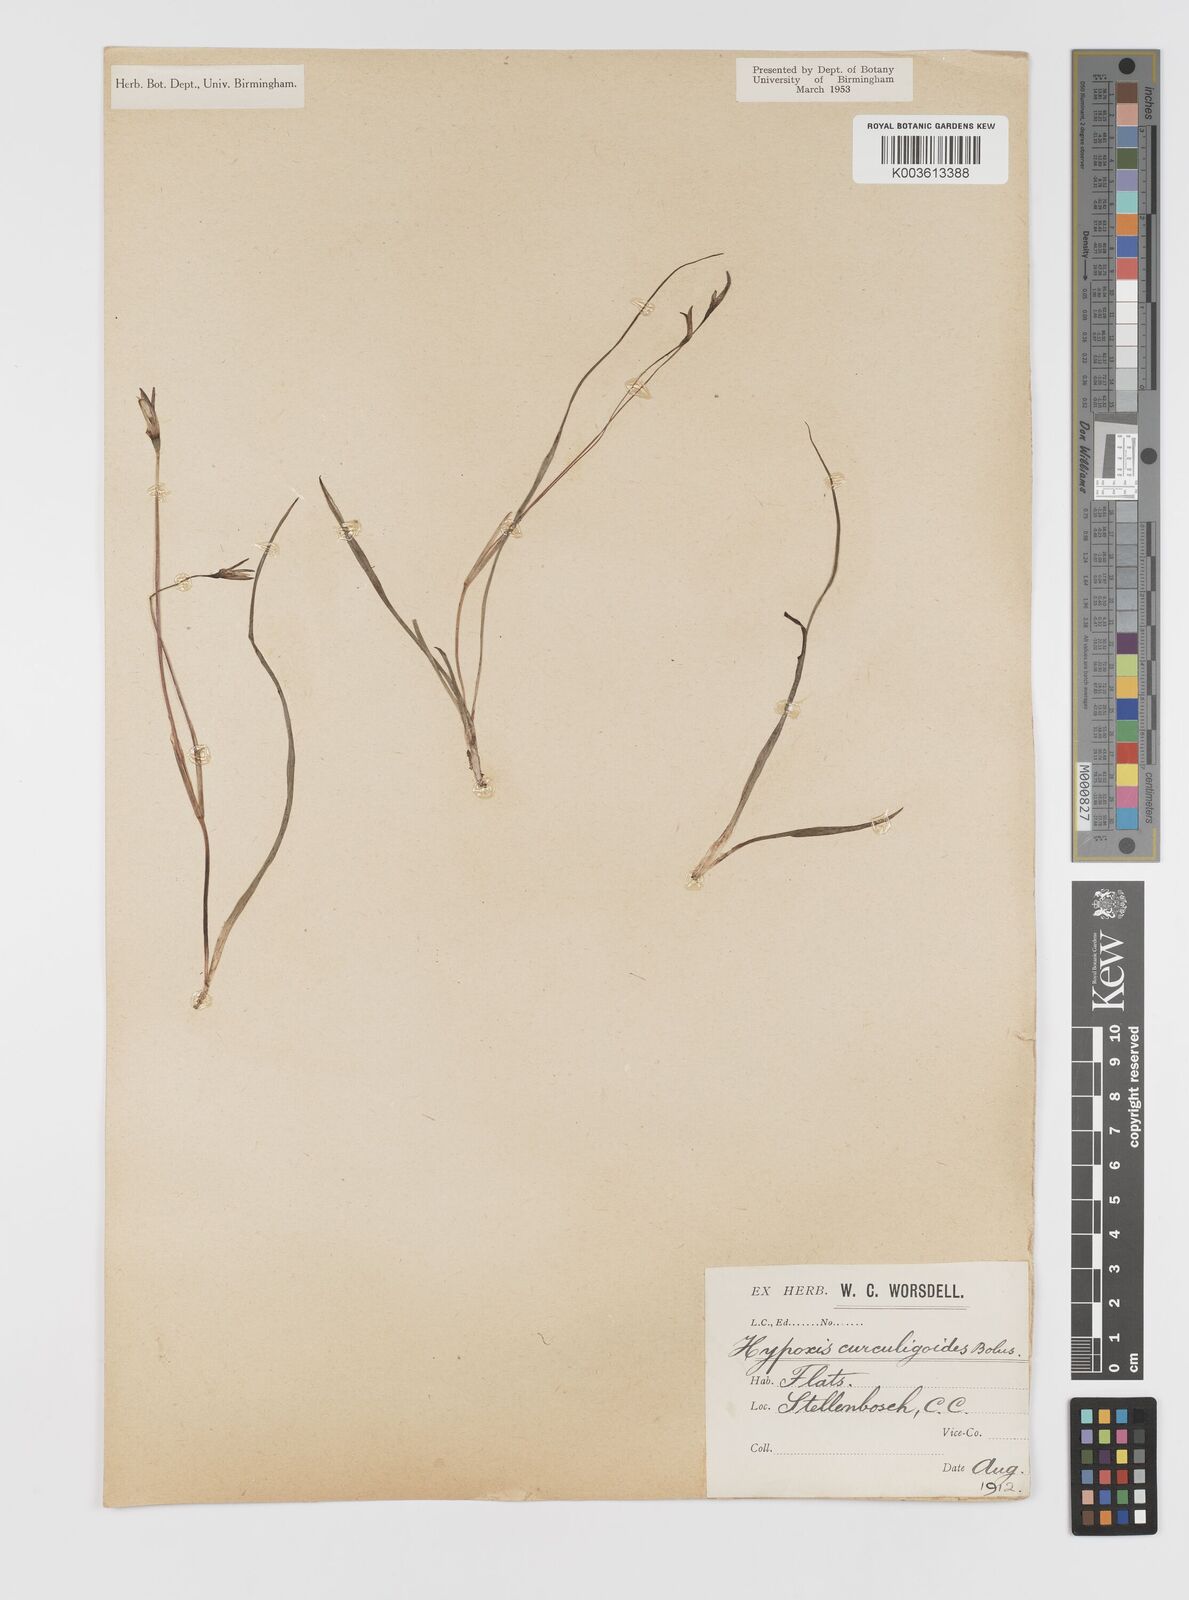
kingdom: Plantae
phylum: Tracheophyta
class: Liliopsida
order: Asparagales
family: Hypoxidaceae
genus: Pauridia
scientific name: Pauridia affinis
